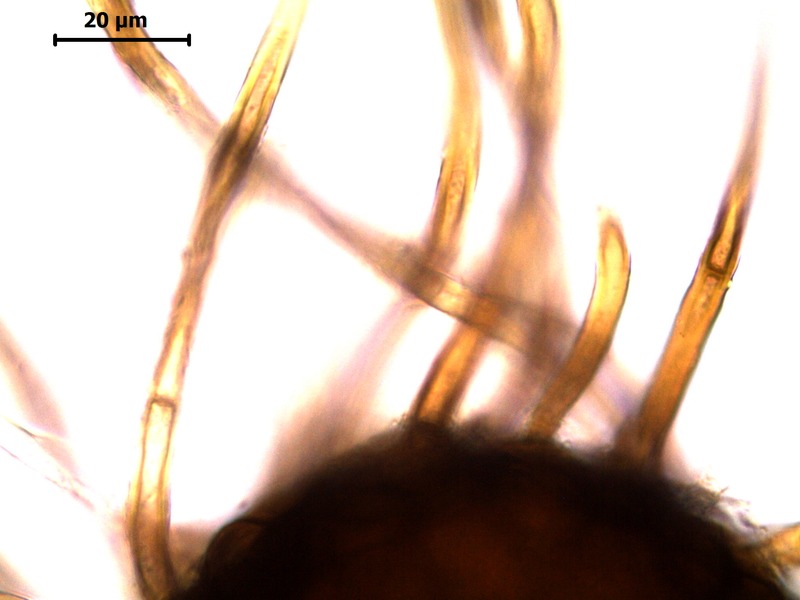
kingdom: Fungi
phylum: Ascomycota
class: Leotiomycetes
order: Helotiales
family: Erysiphaceae
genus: Podosphaera
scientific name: Podosphaera spiraeae
